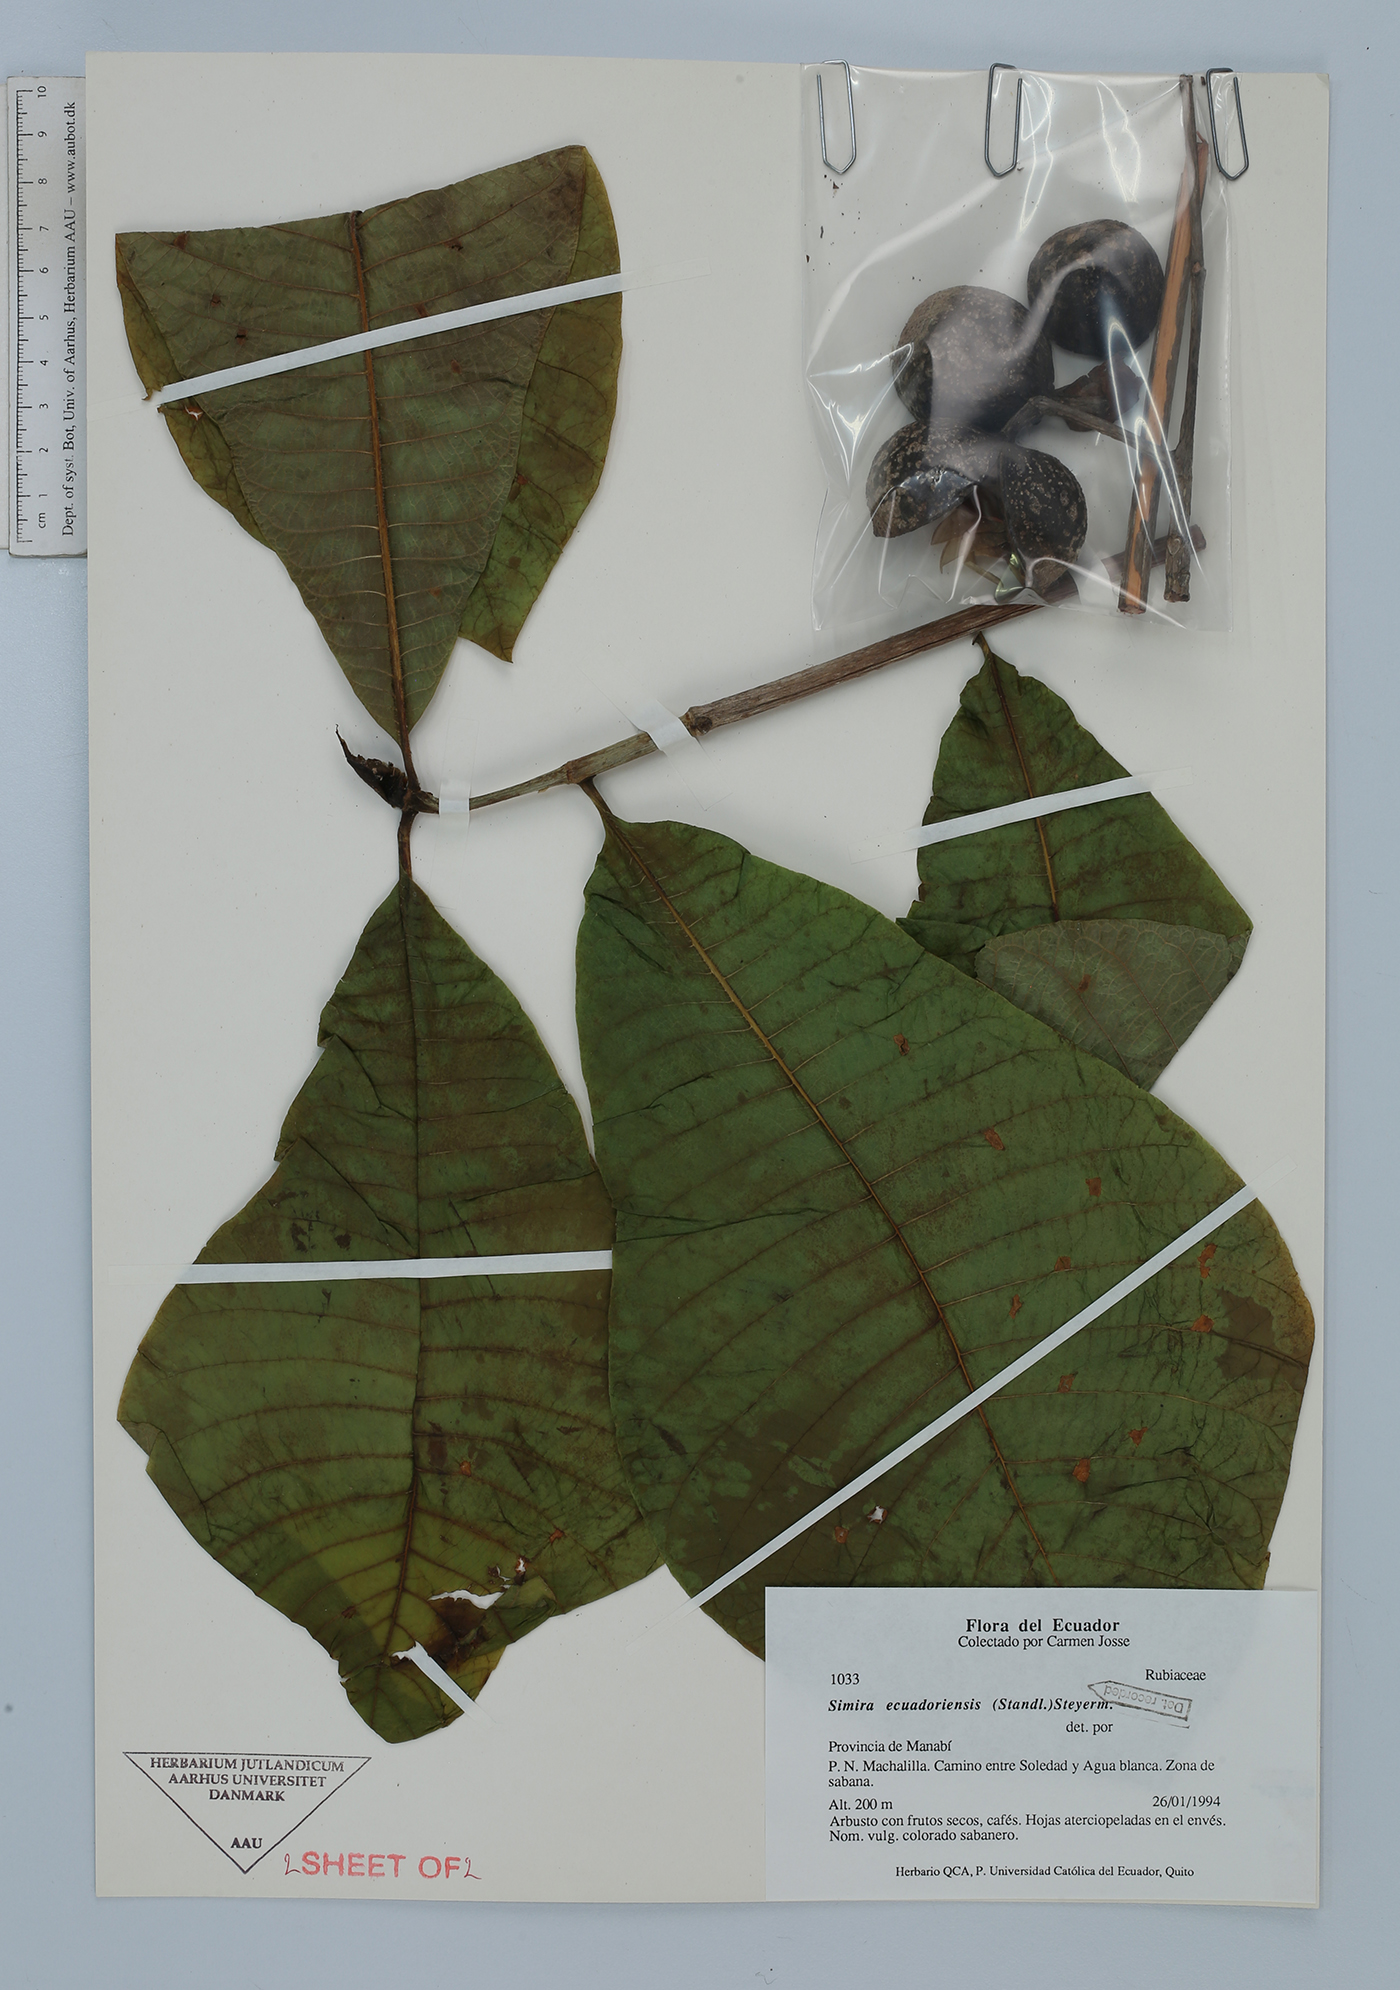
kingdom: Plantae
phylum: Tracheophyta
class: Magnoliopsida
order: Gentianales
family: Rubiaceae
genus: Simira
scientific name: Simira ecuadorensis
